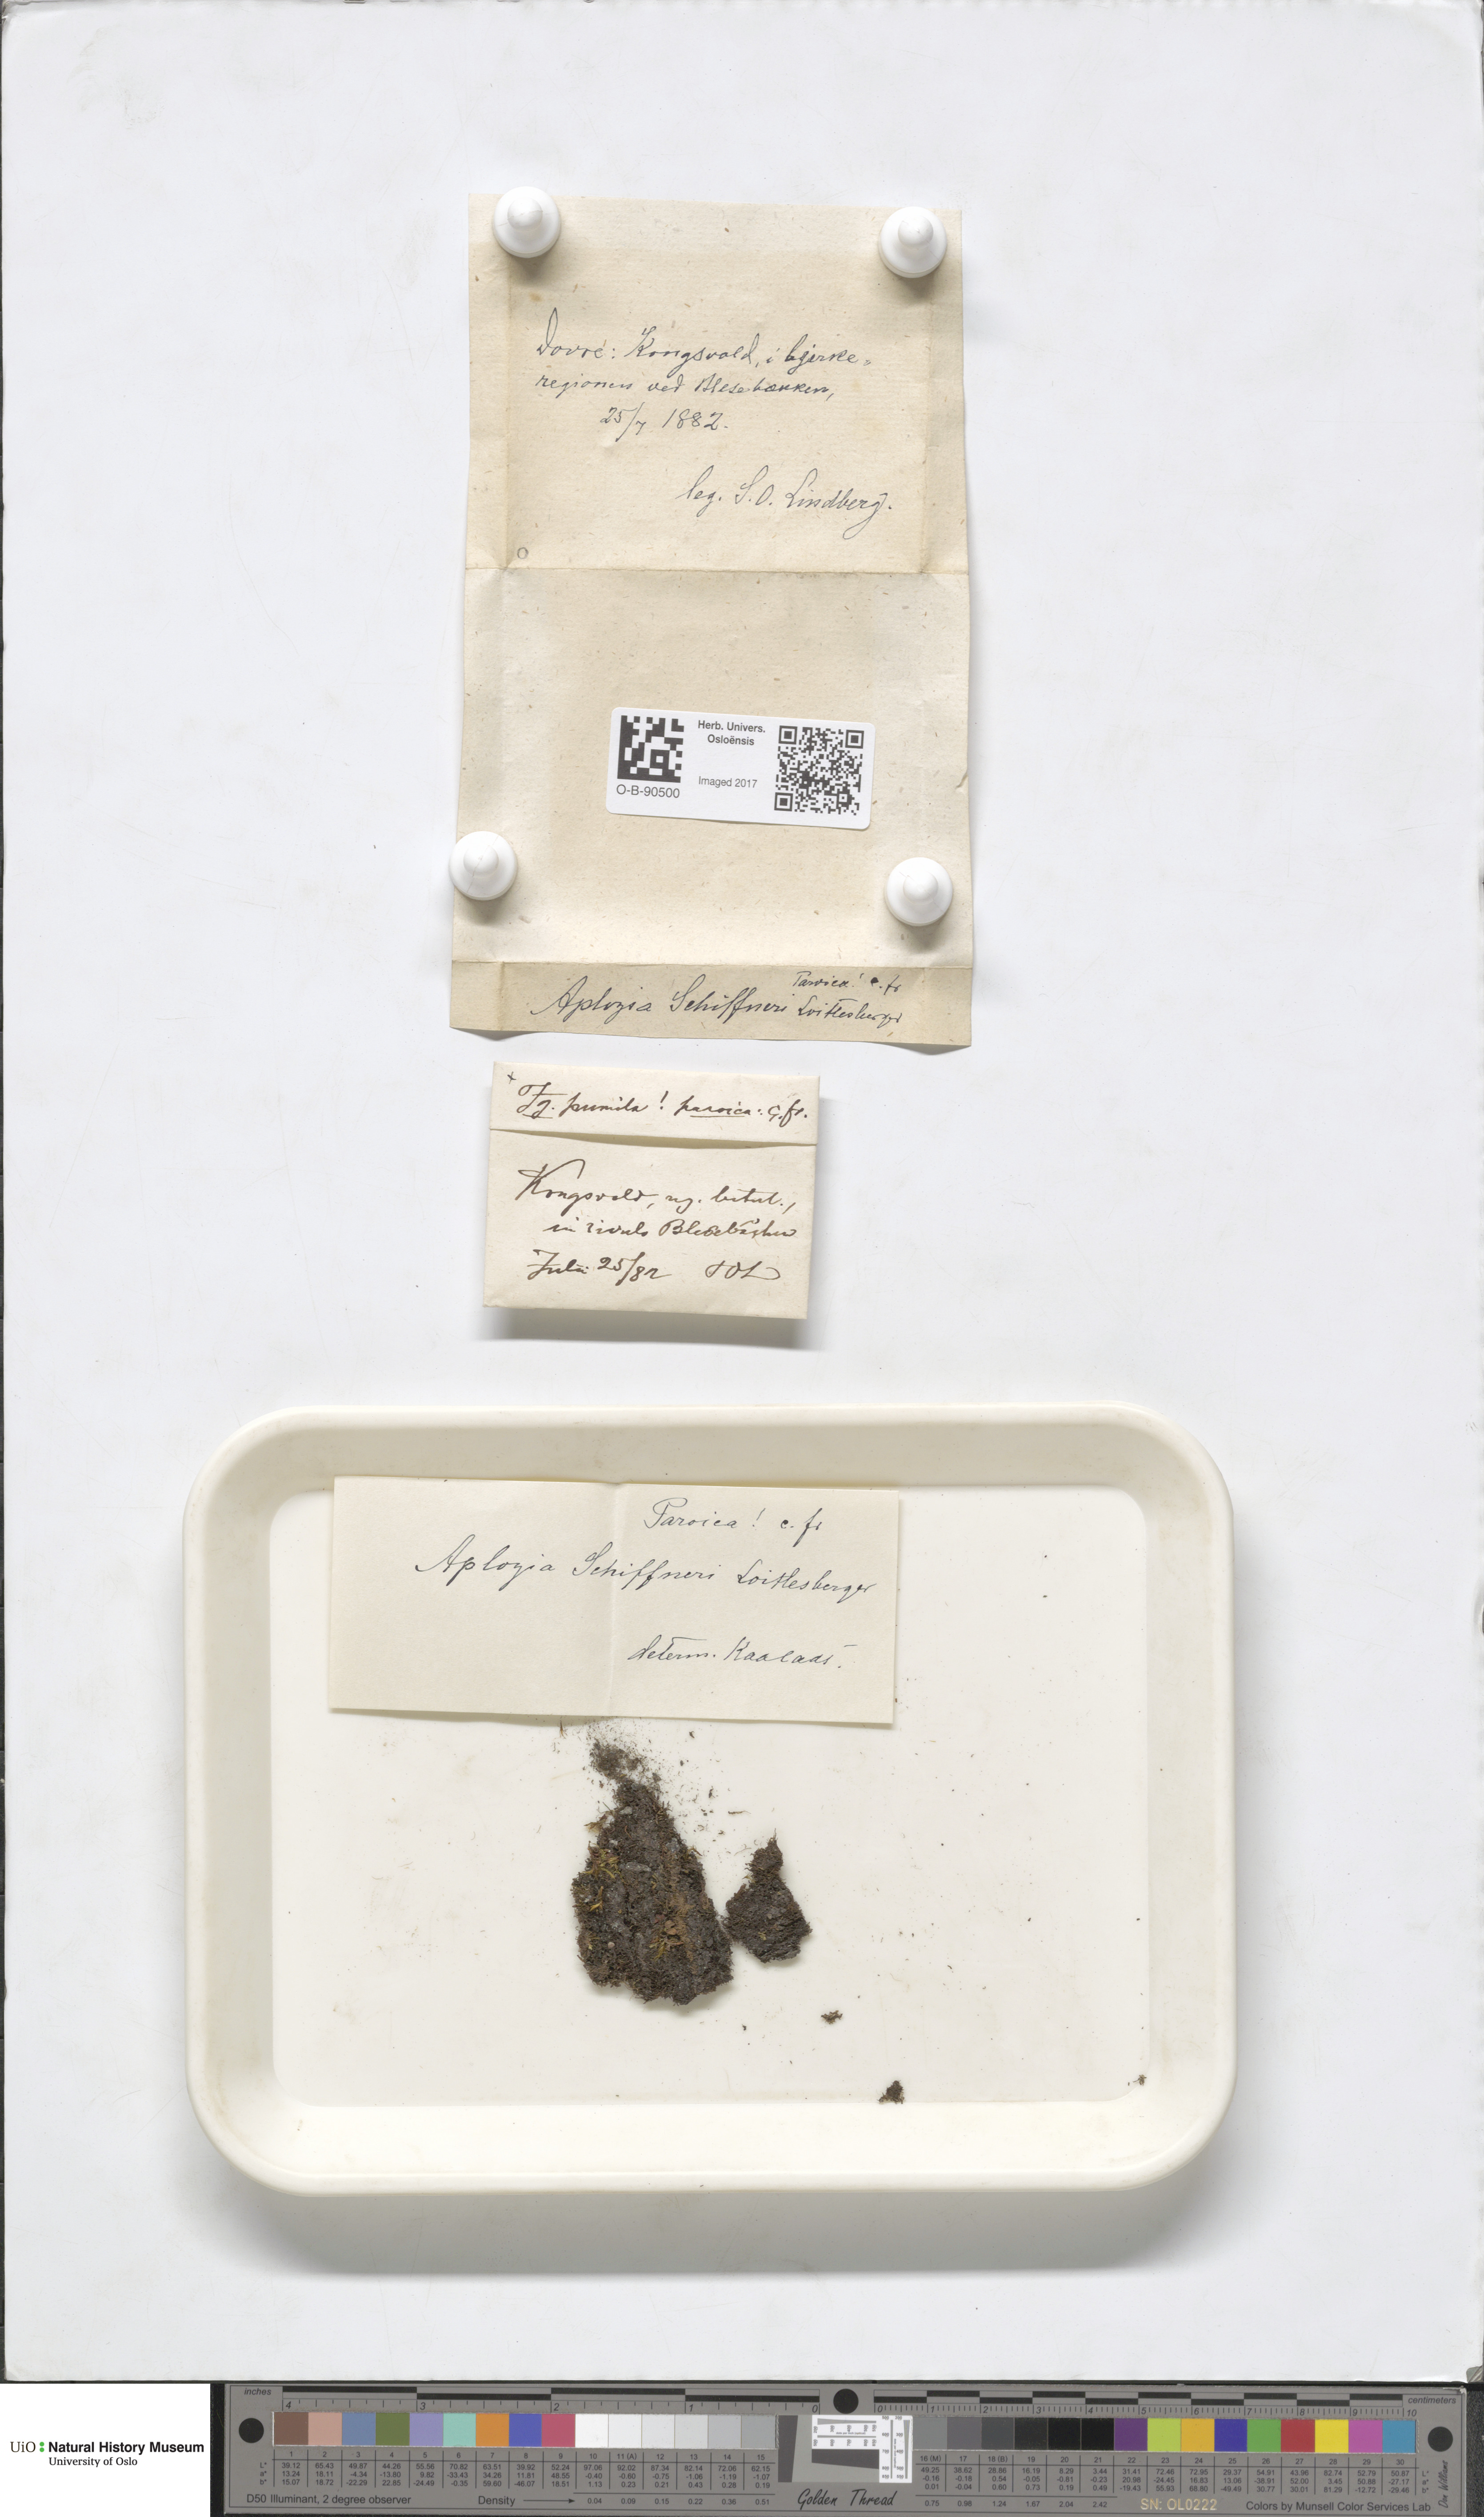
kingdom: Plantae
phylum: Marchantiophyta
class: Jungermanniopsida
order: Jungermanniales
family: Jungermanniaceae
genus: Jungermannia
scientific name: Jungermannia polaris
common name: Arctic flapwort
